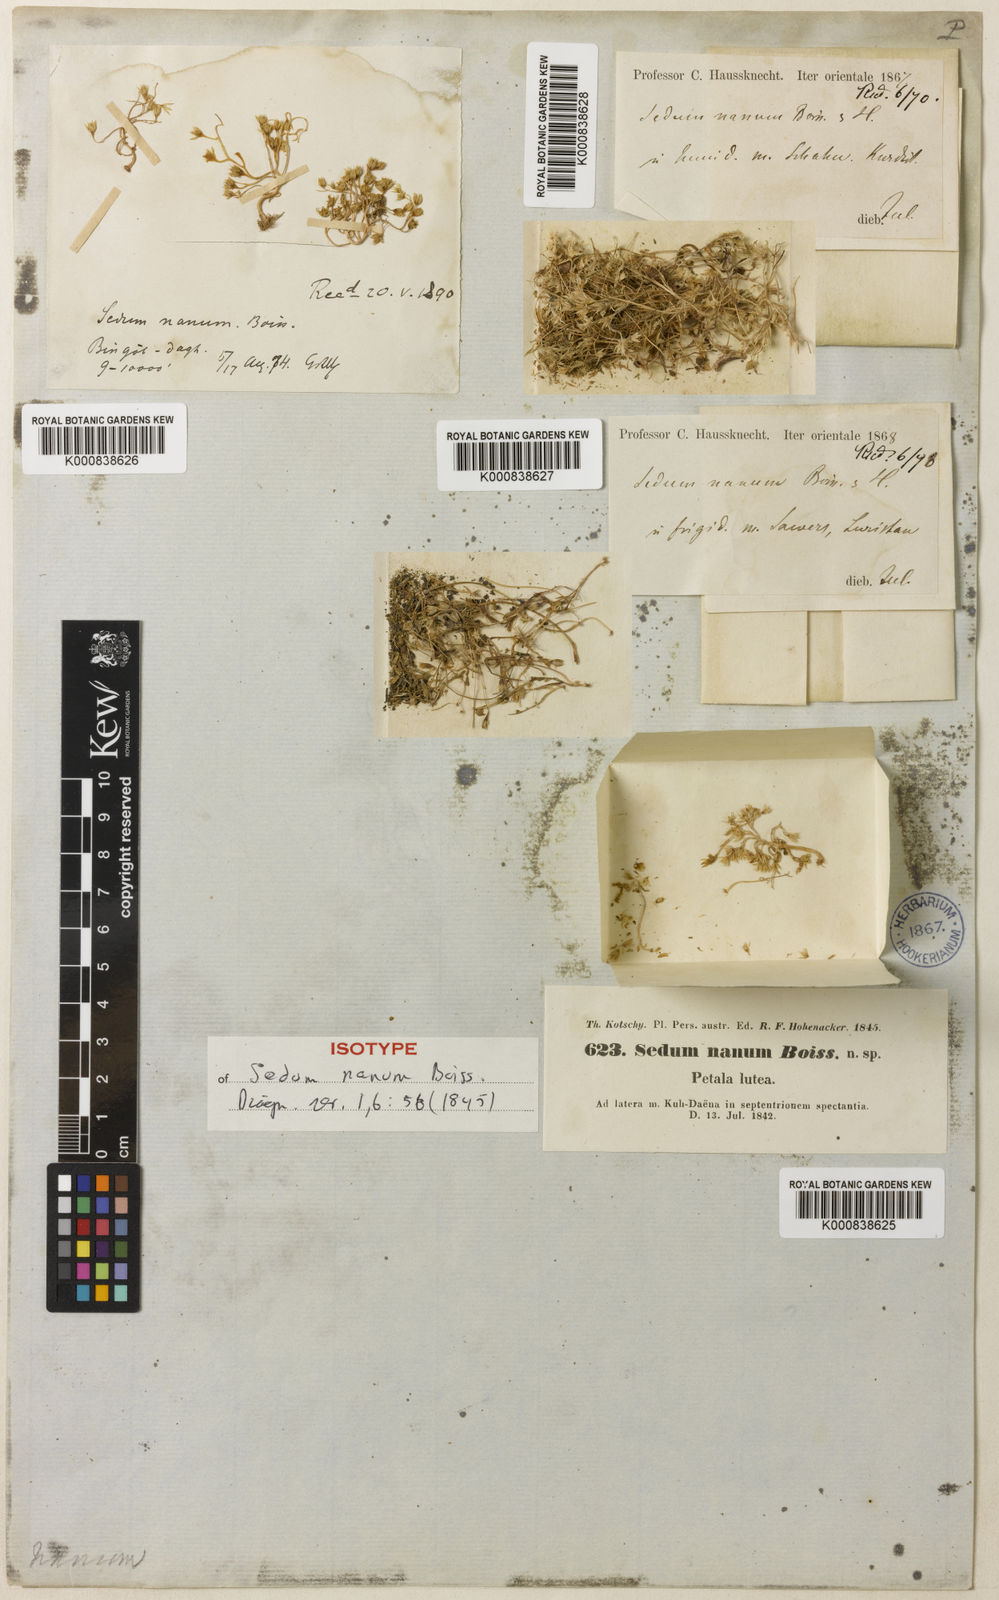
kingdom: Plantae
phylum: Tracheophyta
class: Magnoliopsida
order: Saxifragales
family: Crassulaceae
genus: Sedum
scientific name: Sedum nanum
